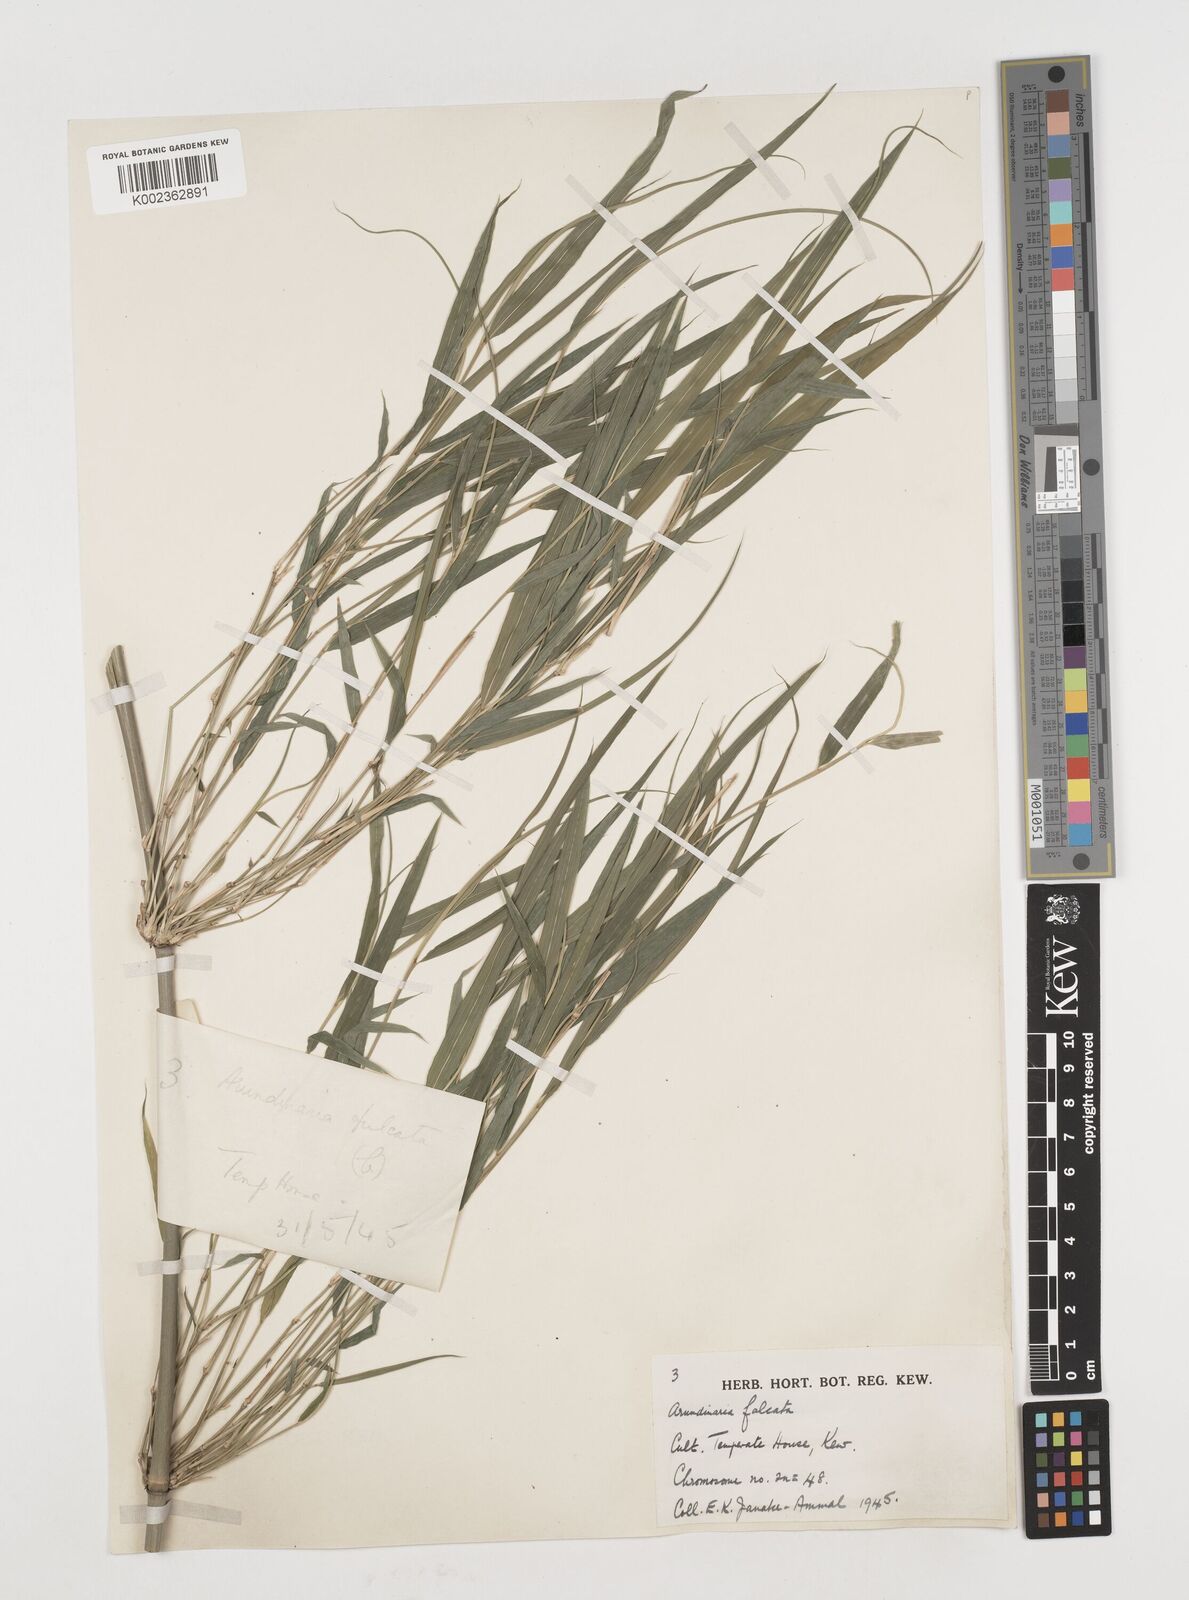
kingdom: Plantae
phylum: Tracheophyta
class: Liliopsida
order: Poales
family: Poaceae
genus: Drepanostachyum
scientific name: Drepanostachyum falcatum
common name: Himalayan bamboo
